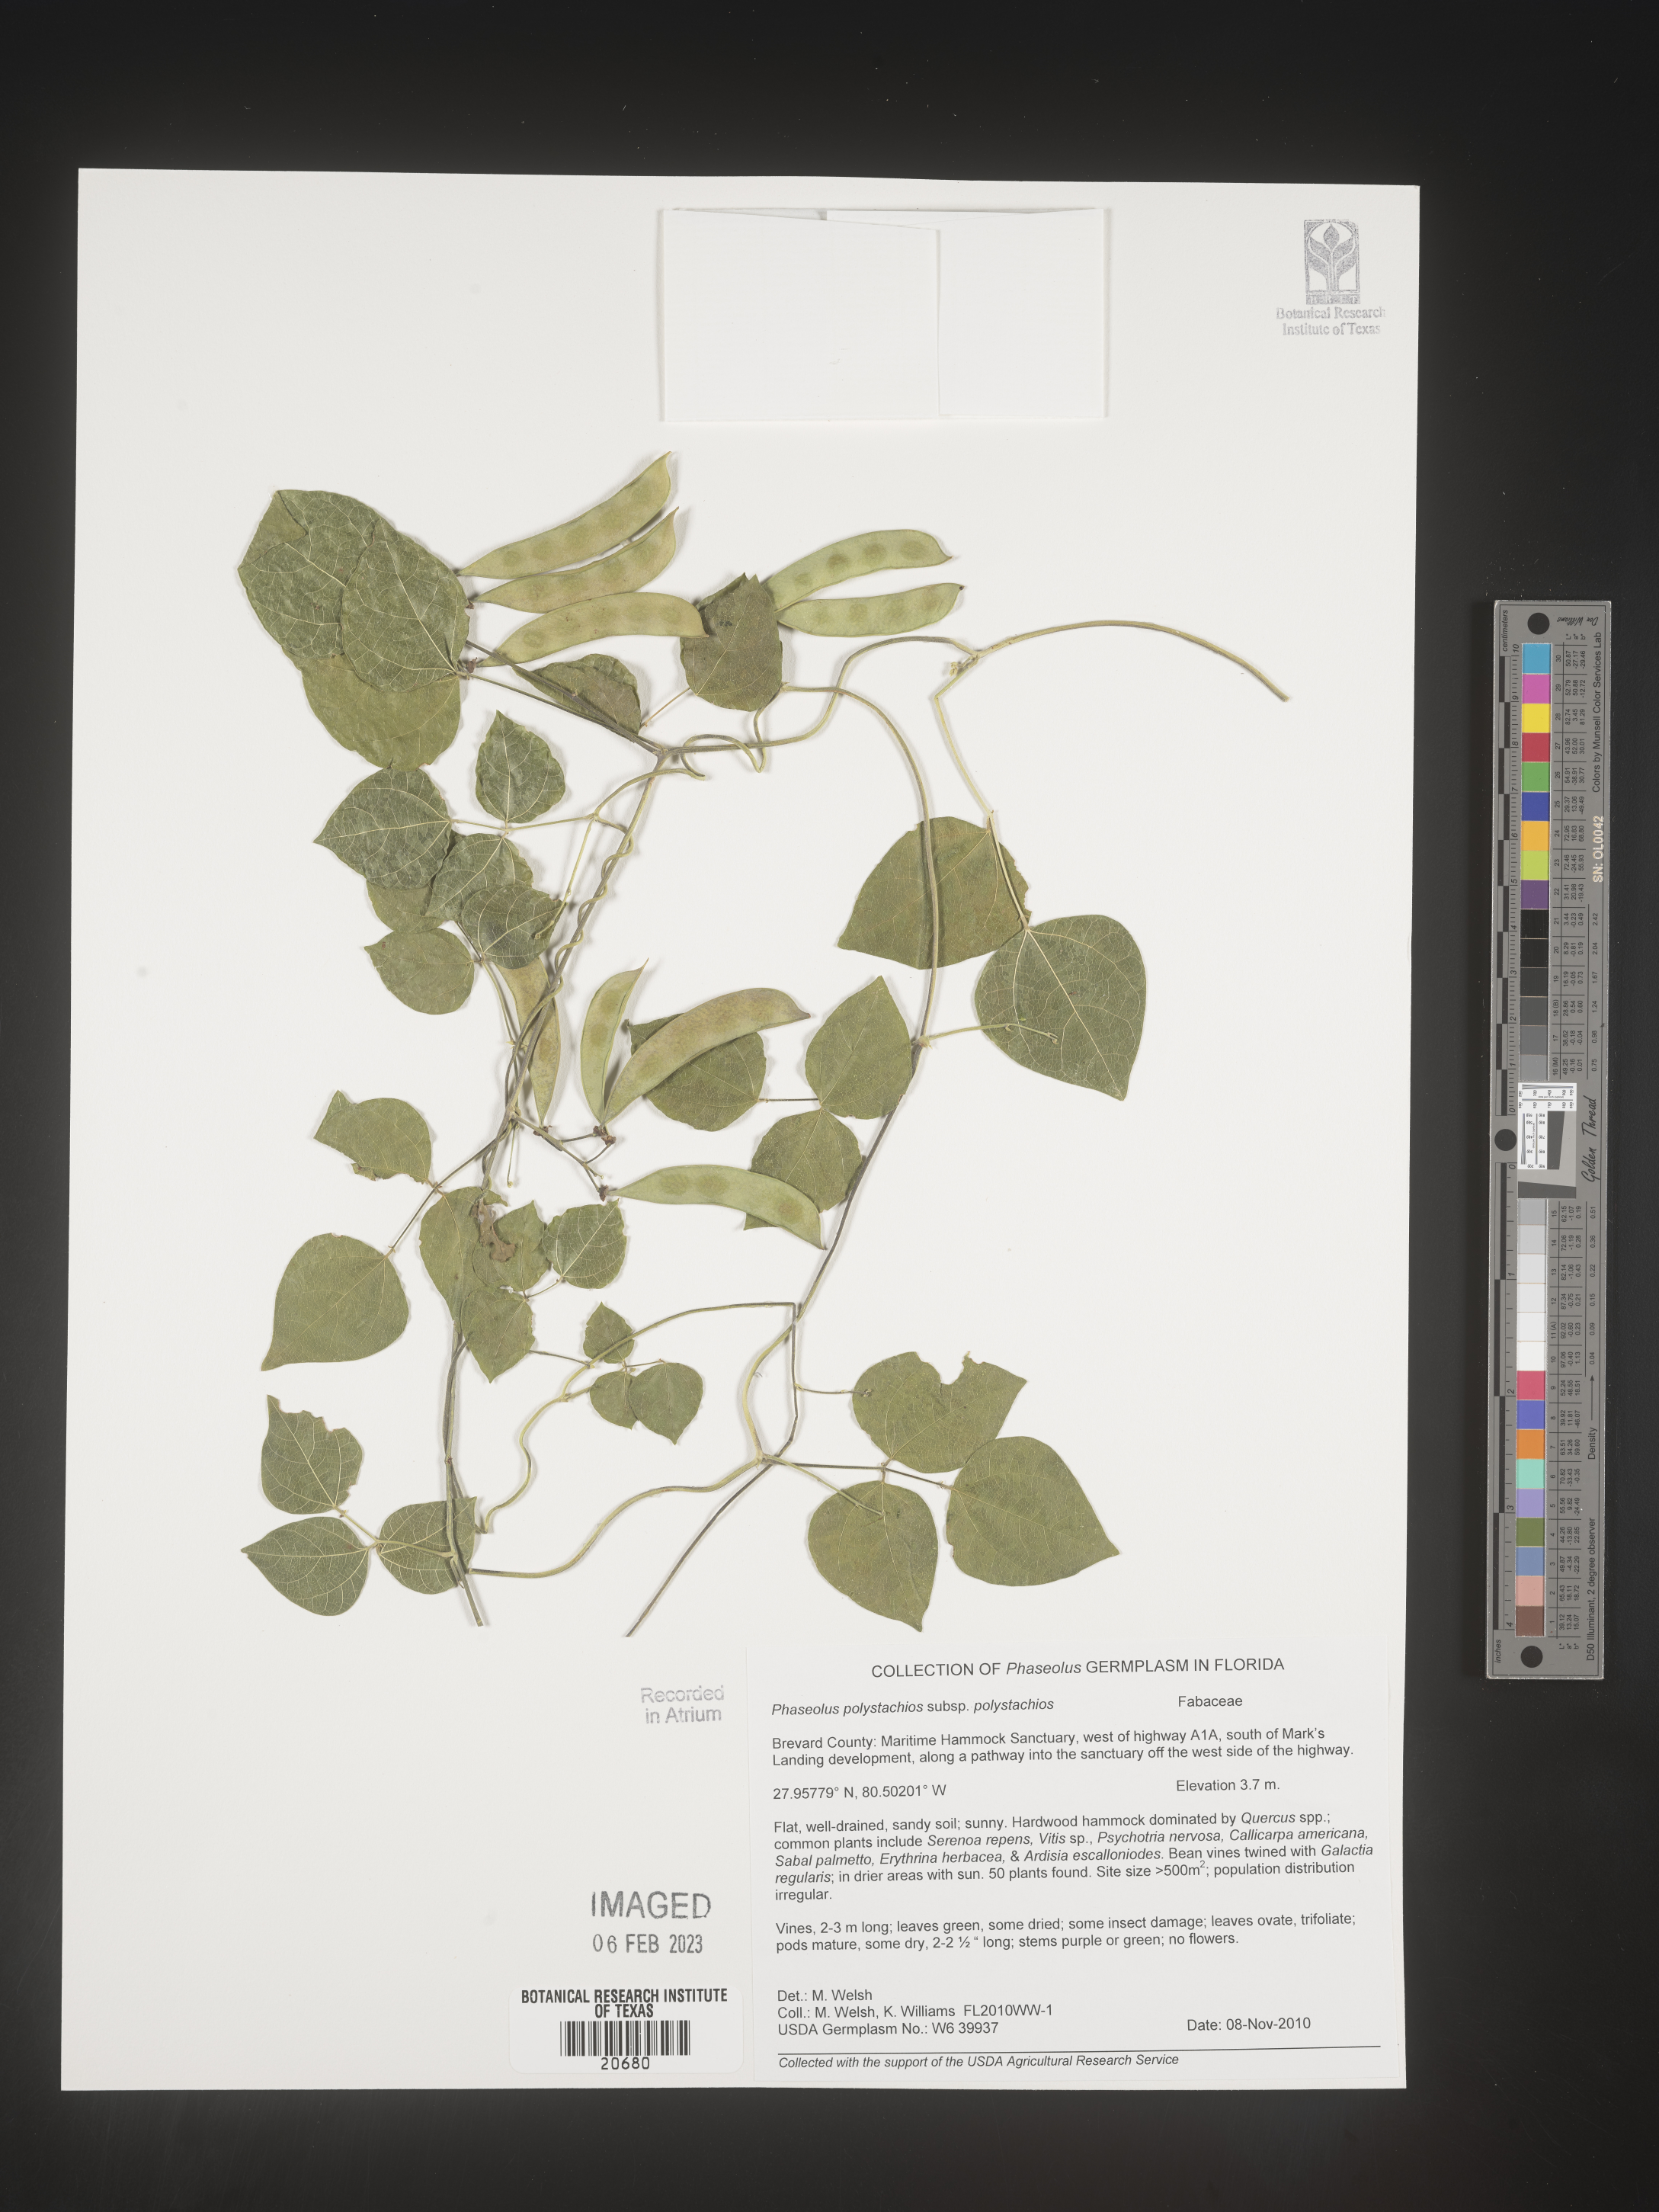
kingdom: Plantae
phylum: Tracheophyta
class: Magnoliopsida
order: Fabales
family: Fabaceae
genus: Phaseolus
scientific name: Phaseolus polystachios
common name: Thicket bean
